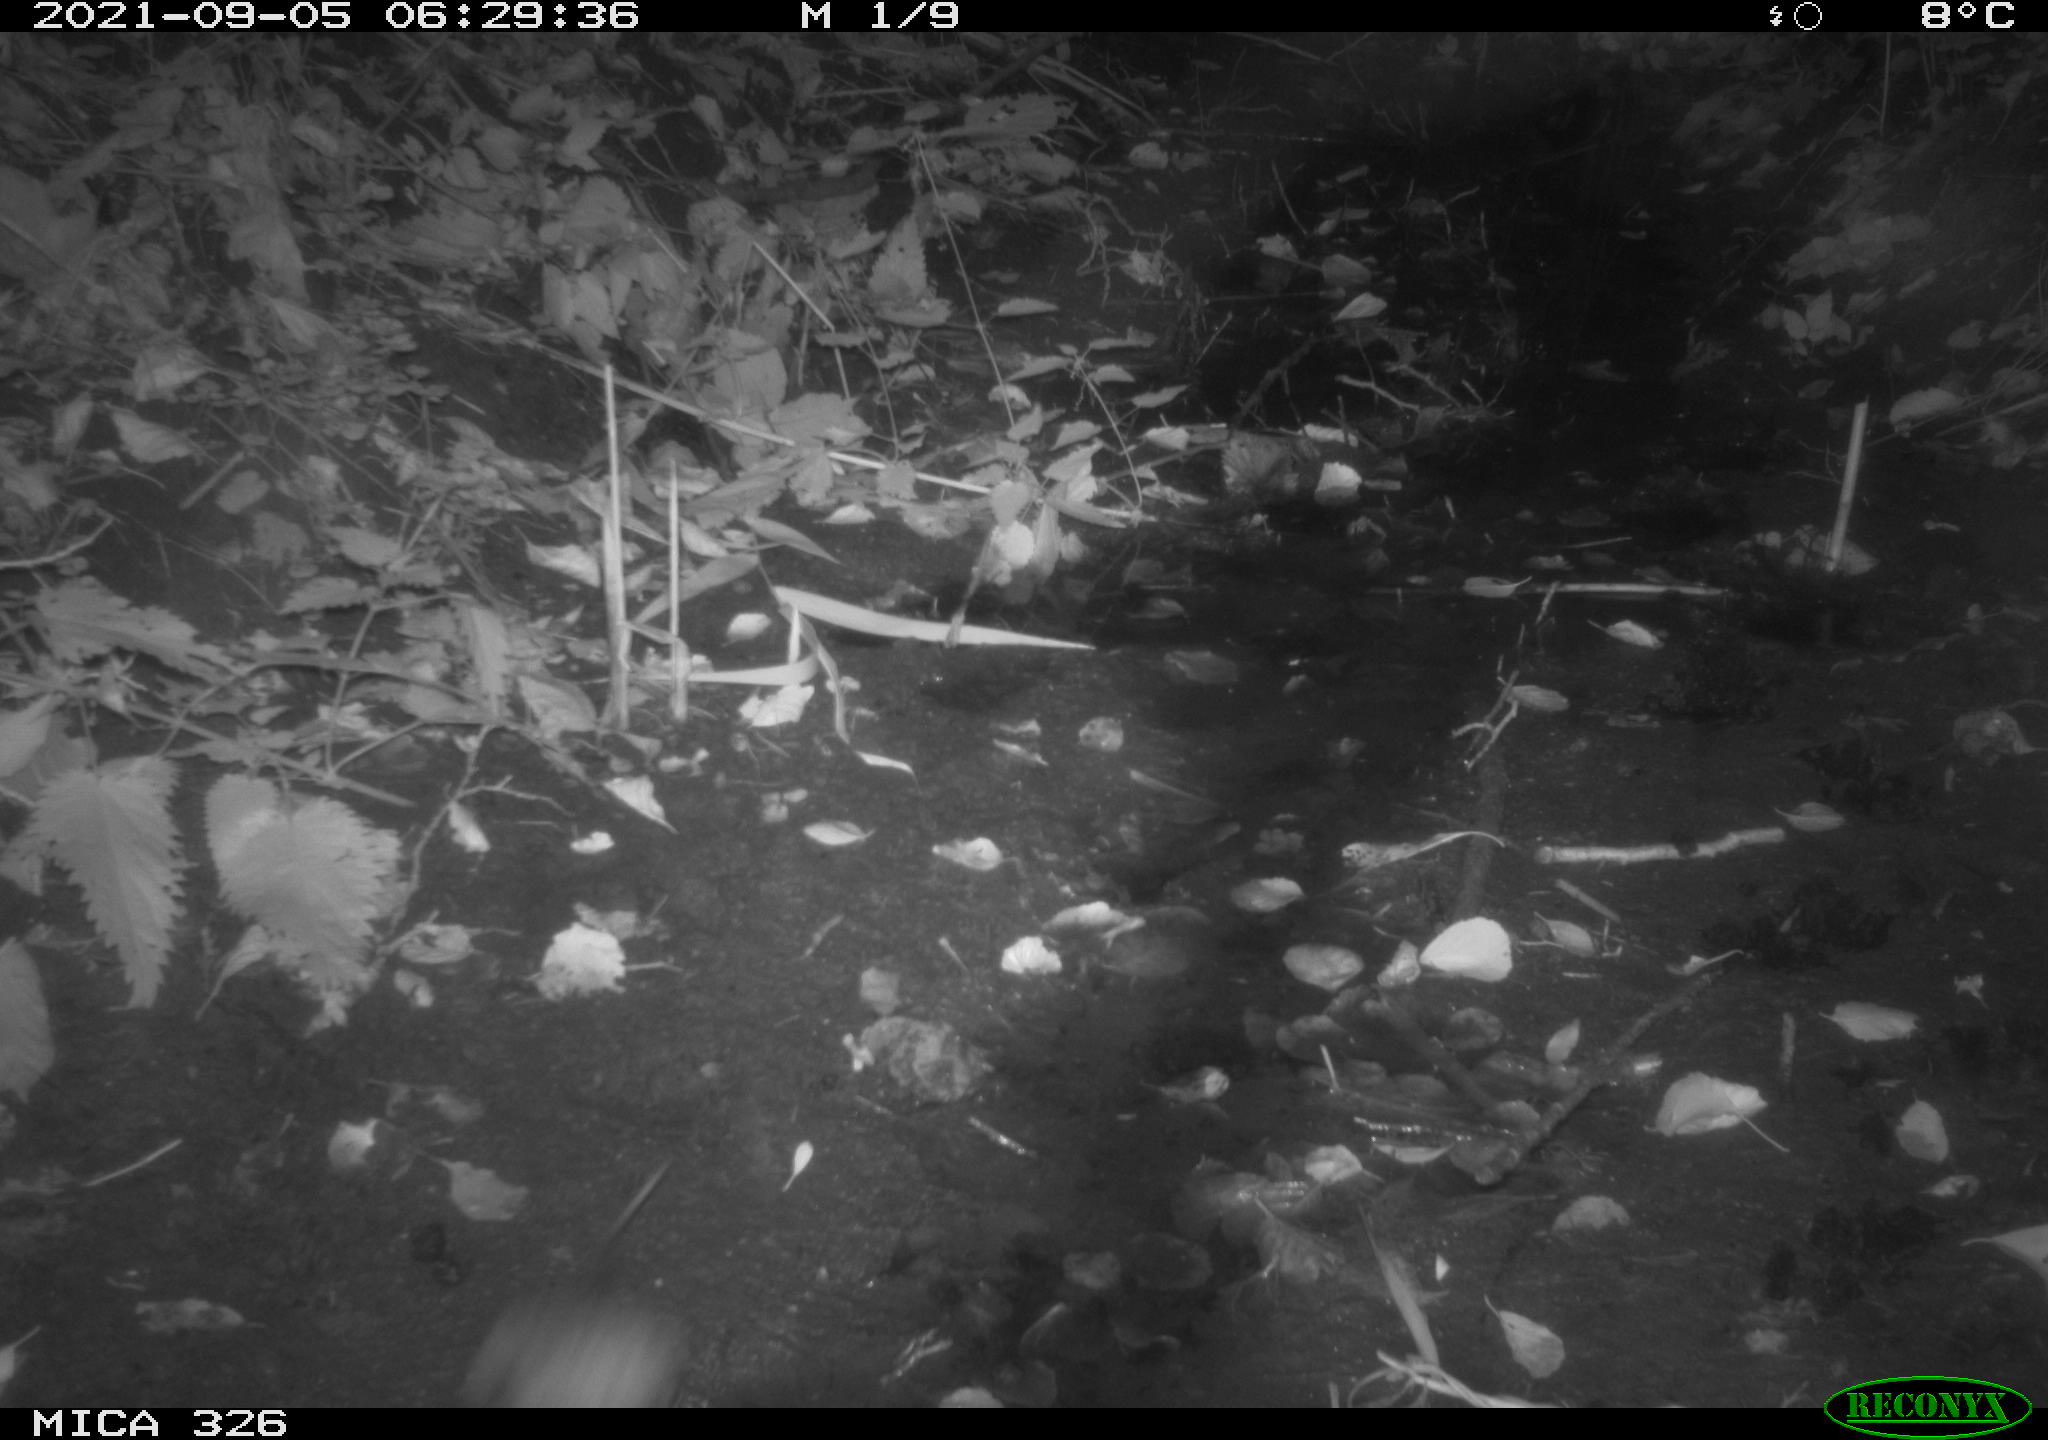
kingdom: Animalia
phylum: Chordata
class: Mammalia
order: Rodentia
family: Muridae
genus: Rattus
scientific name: Rattus norvegicus
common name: Brown rat
